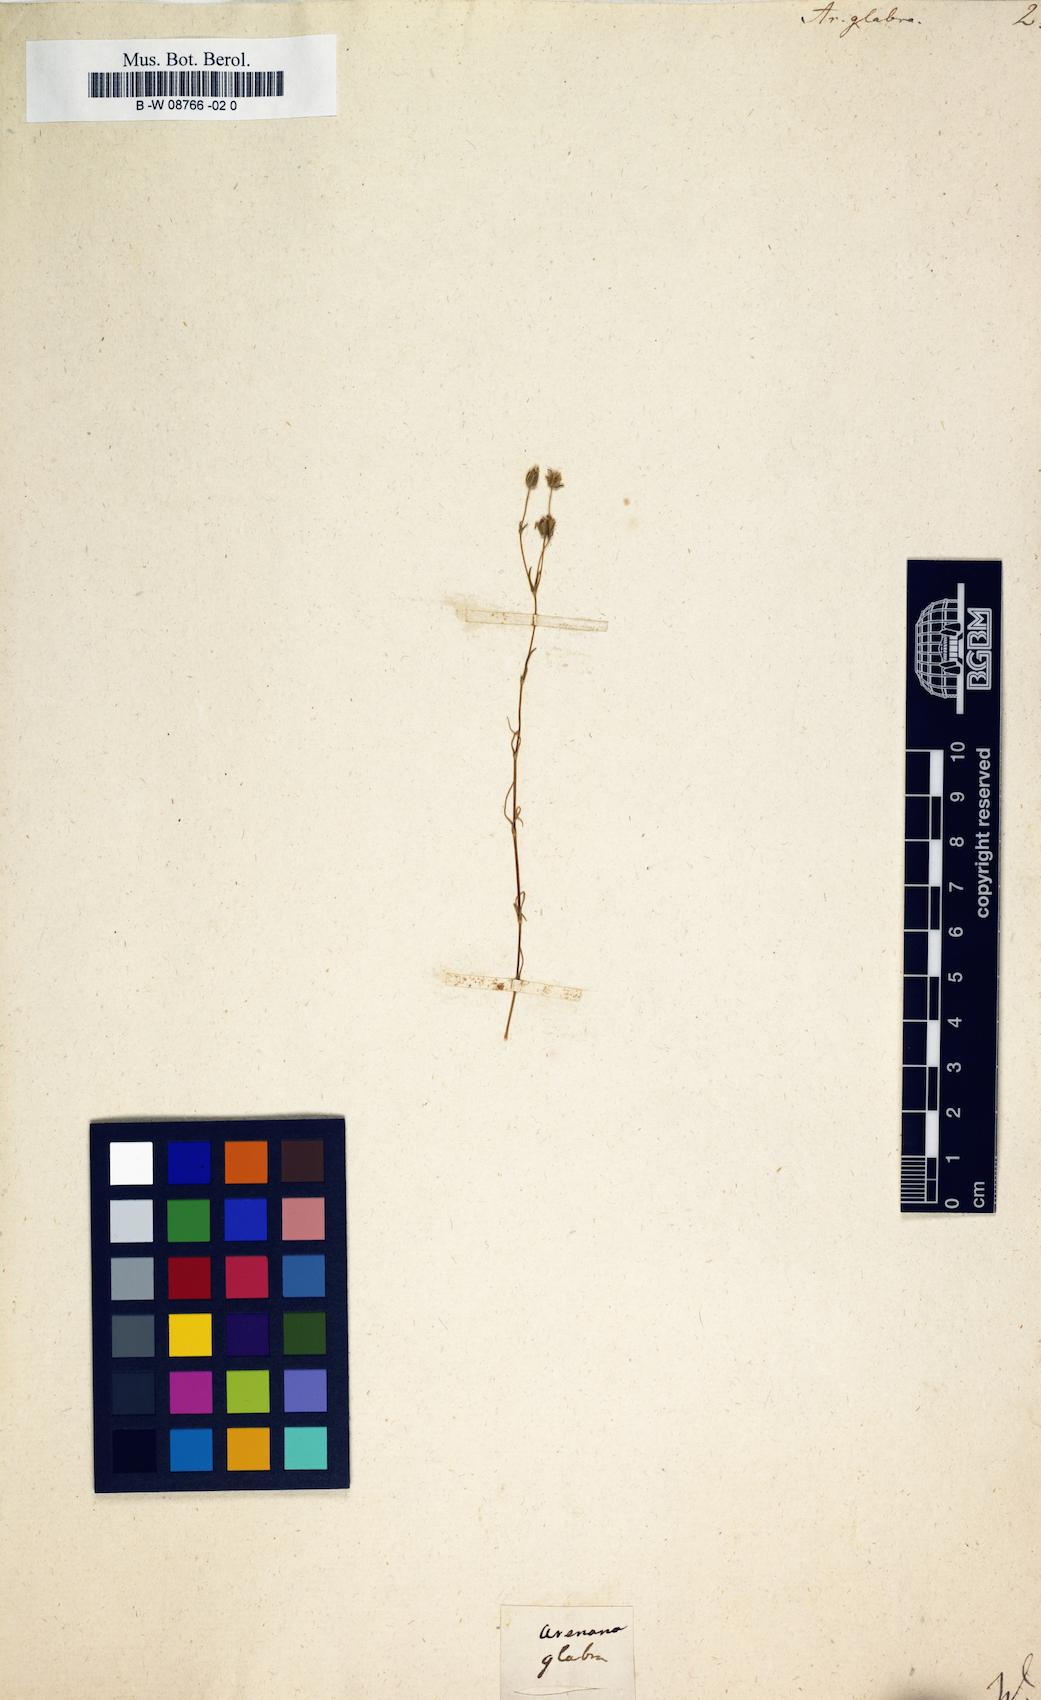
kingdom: Plantae
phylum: Tracheophyta
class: Magnoliopsida
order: Caryophyllales
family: Caryophyllaceae
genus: Geocarpon
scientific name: Geocarpon glabrum
